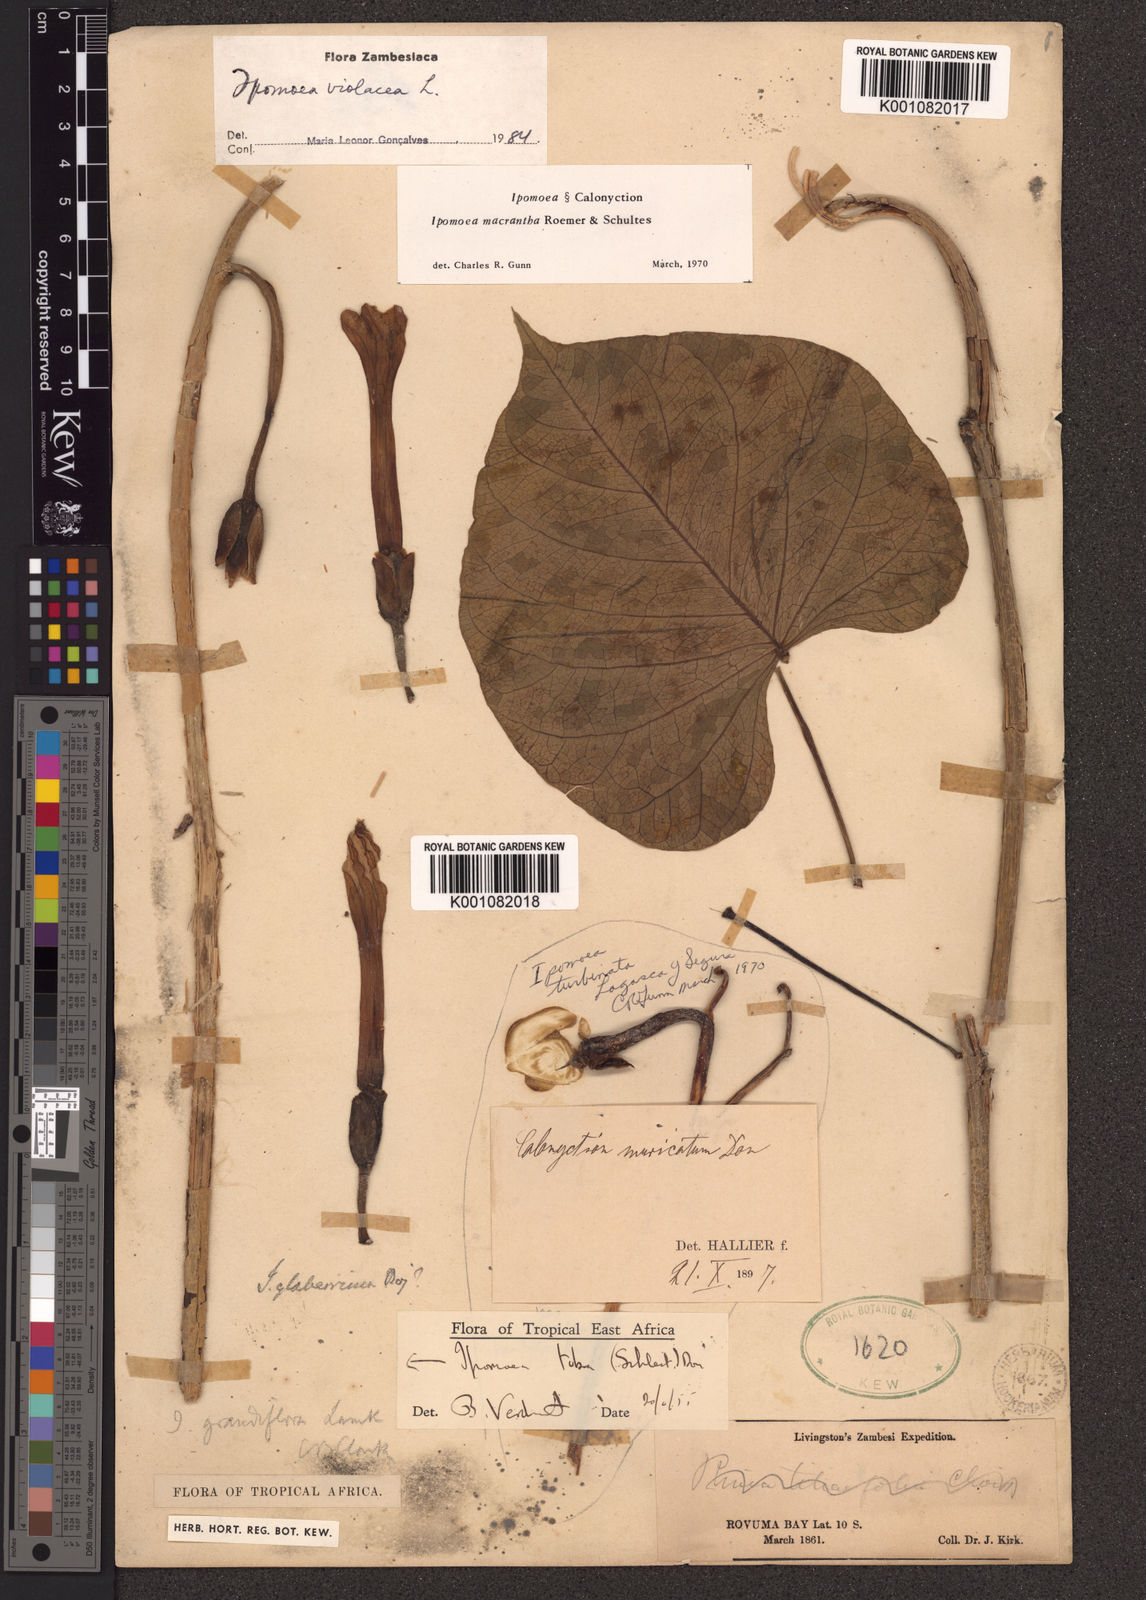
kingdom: Plantae
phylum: Tracheophyta
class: Magnoliopsida
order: Solanales
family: Convolvulaceae
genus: Ipomoea
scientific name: Ipomoea violacea
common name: Beach moonflower
